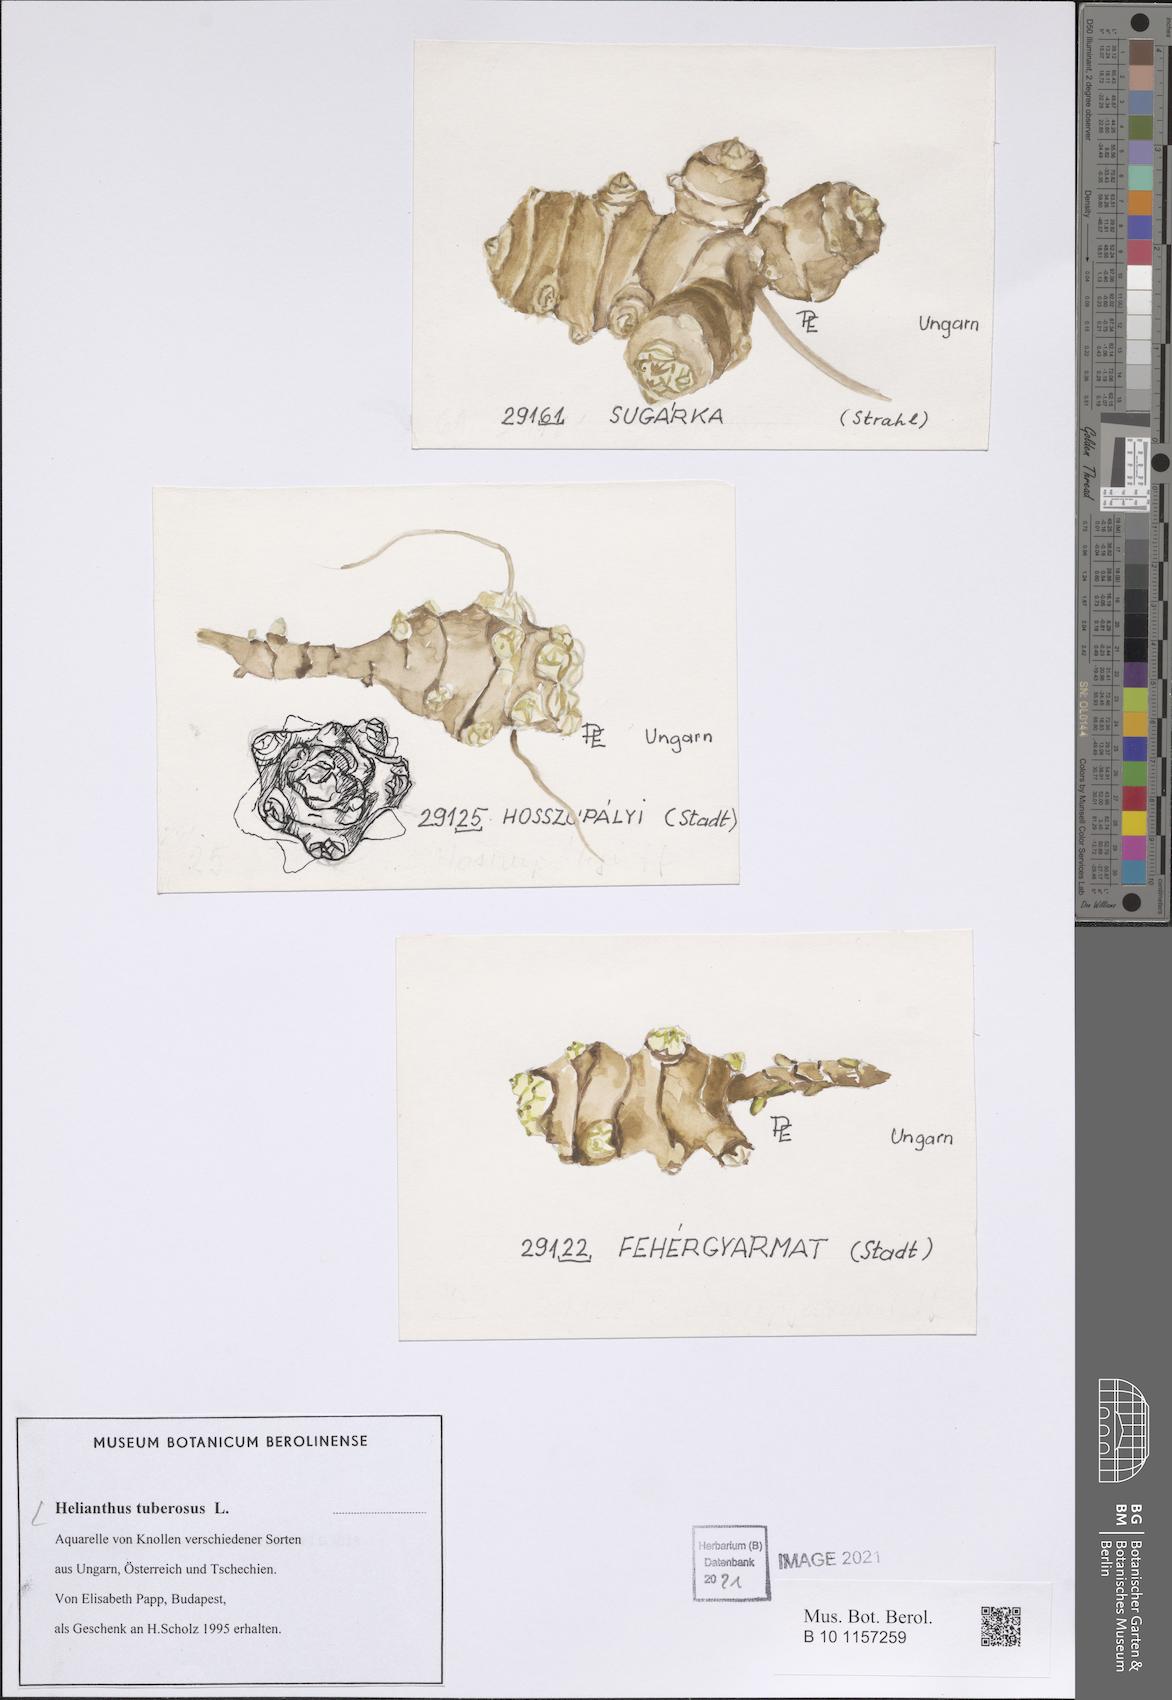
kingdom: Plantae
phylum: Tracheophyta
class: Magnoliopsida
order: Asterales
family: Asteraceae
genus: Helianthus
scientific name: Helianthus tuberosus
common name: Jerusalem artichoke
